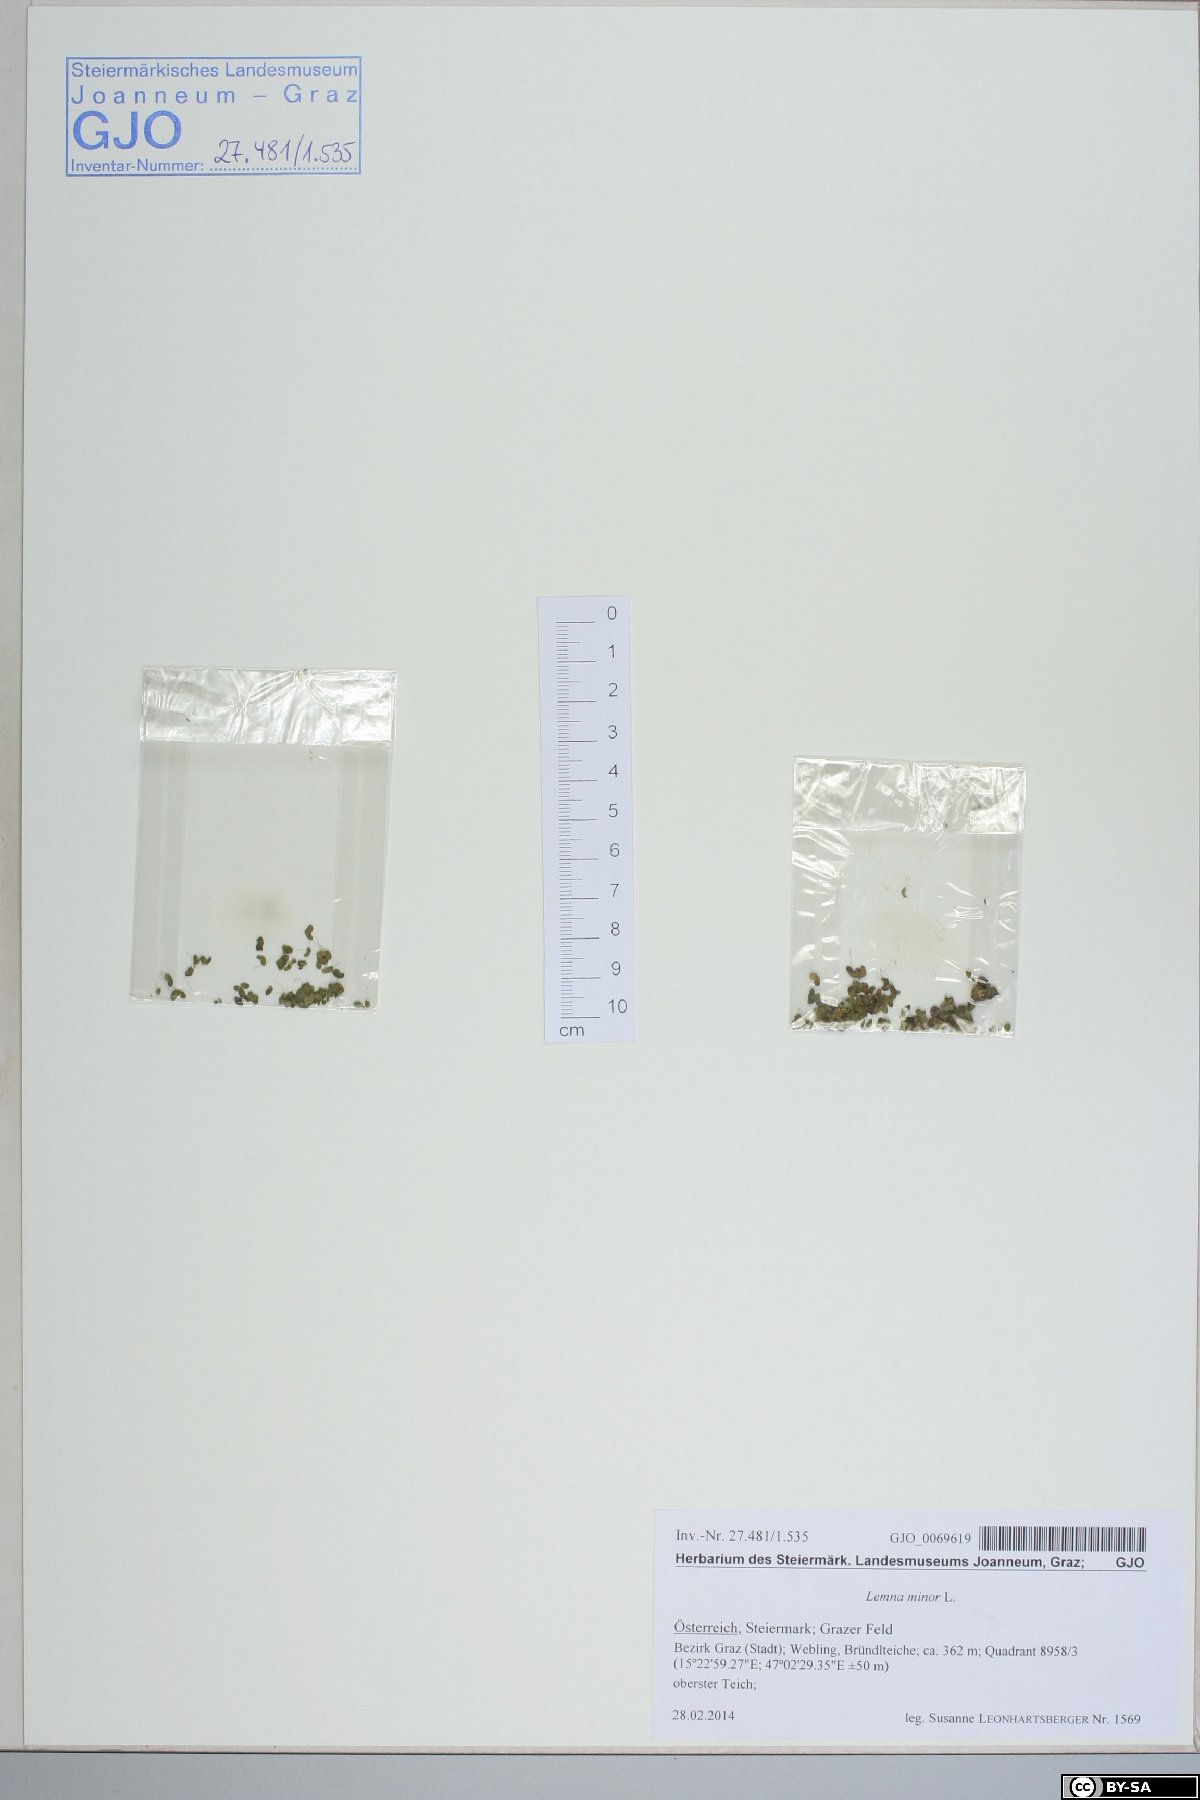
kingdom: Plantae
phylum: Tracheophyta
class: Liliopsida
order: Alismatales
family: Araceae
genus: Lemna
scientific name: Lemna minor
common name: Common duckweed
